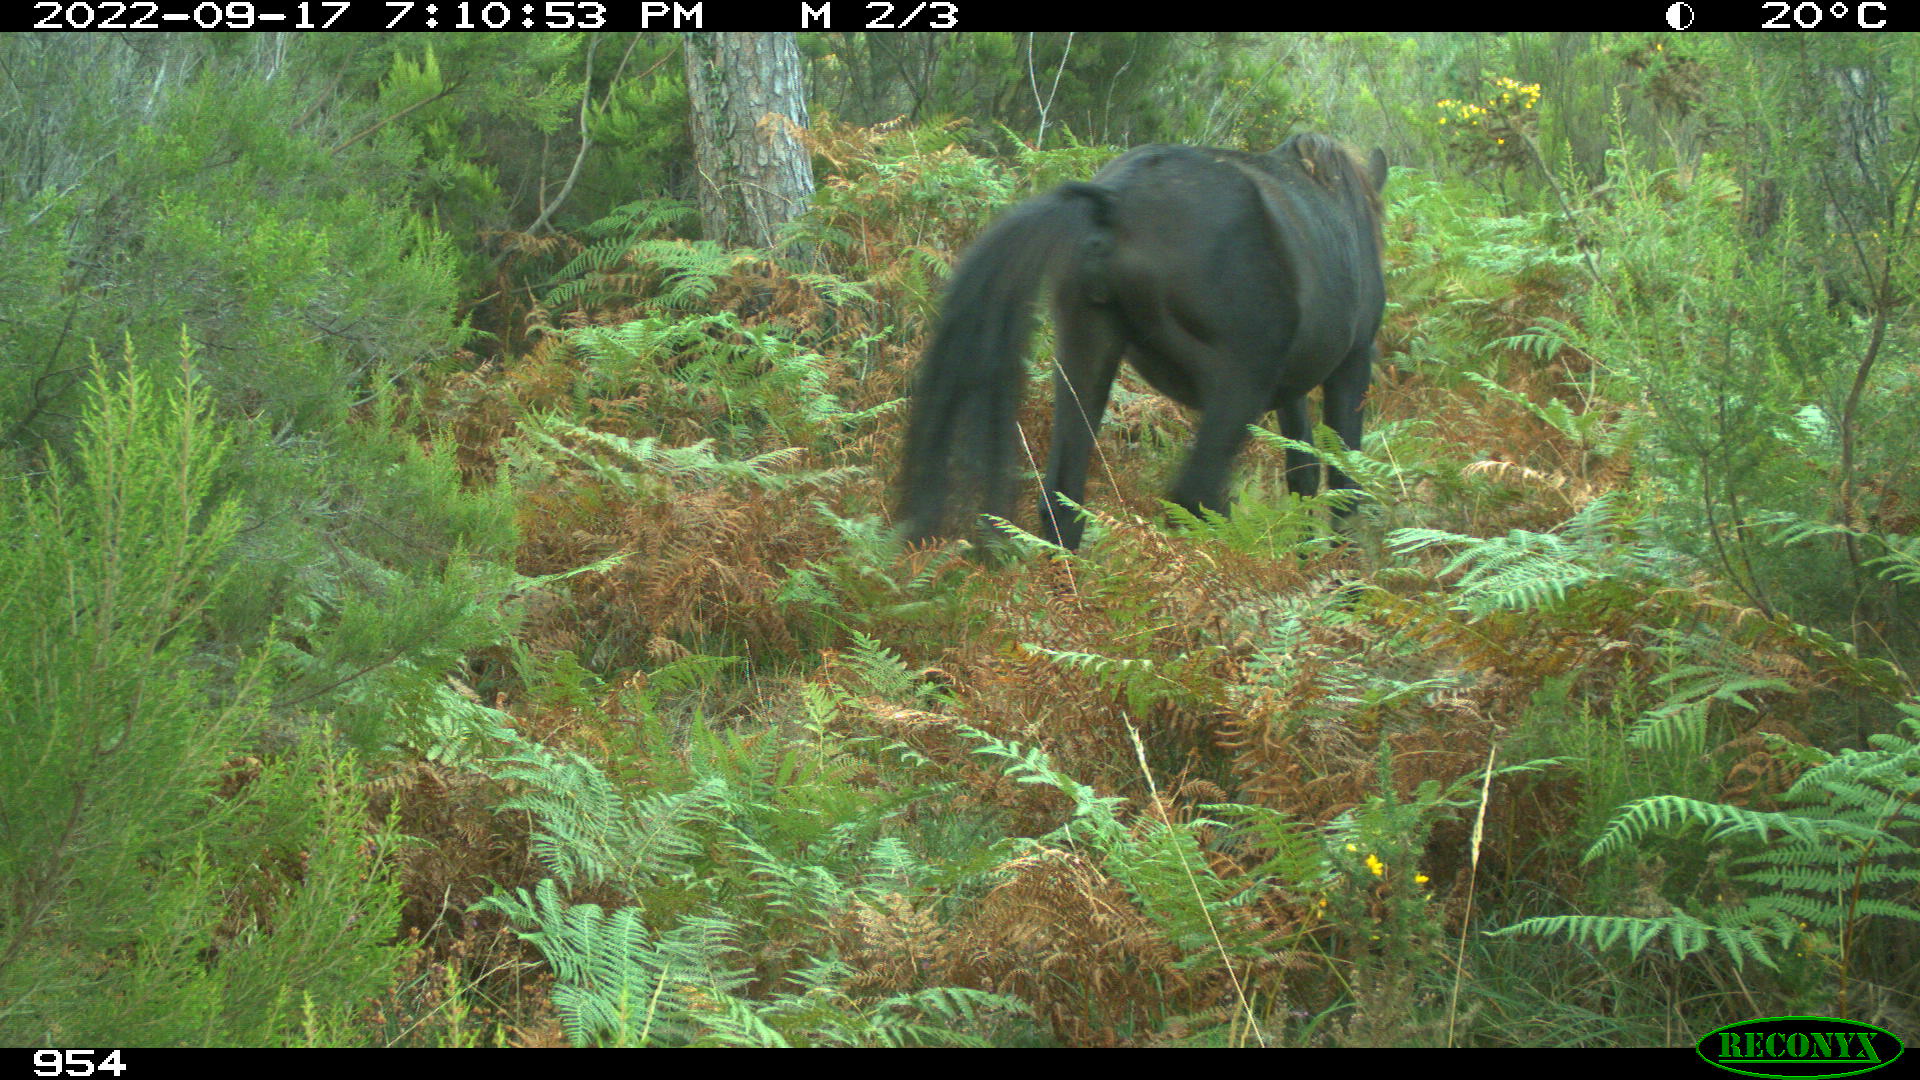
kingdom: Animalia
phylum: Chordata
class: Mammalia
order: Perissodactyla
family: Equidae
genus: Equus
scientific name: Equus caballus
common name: Horse
